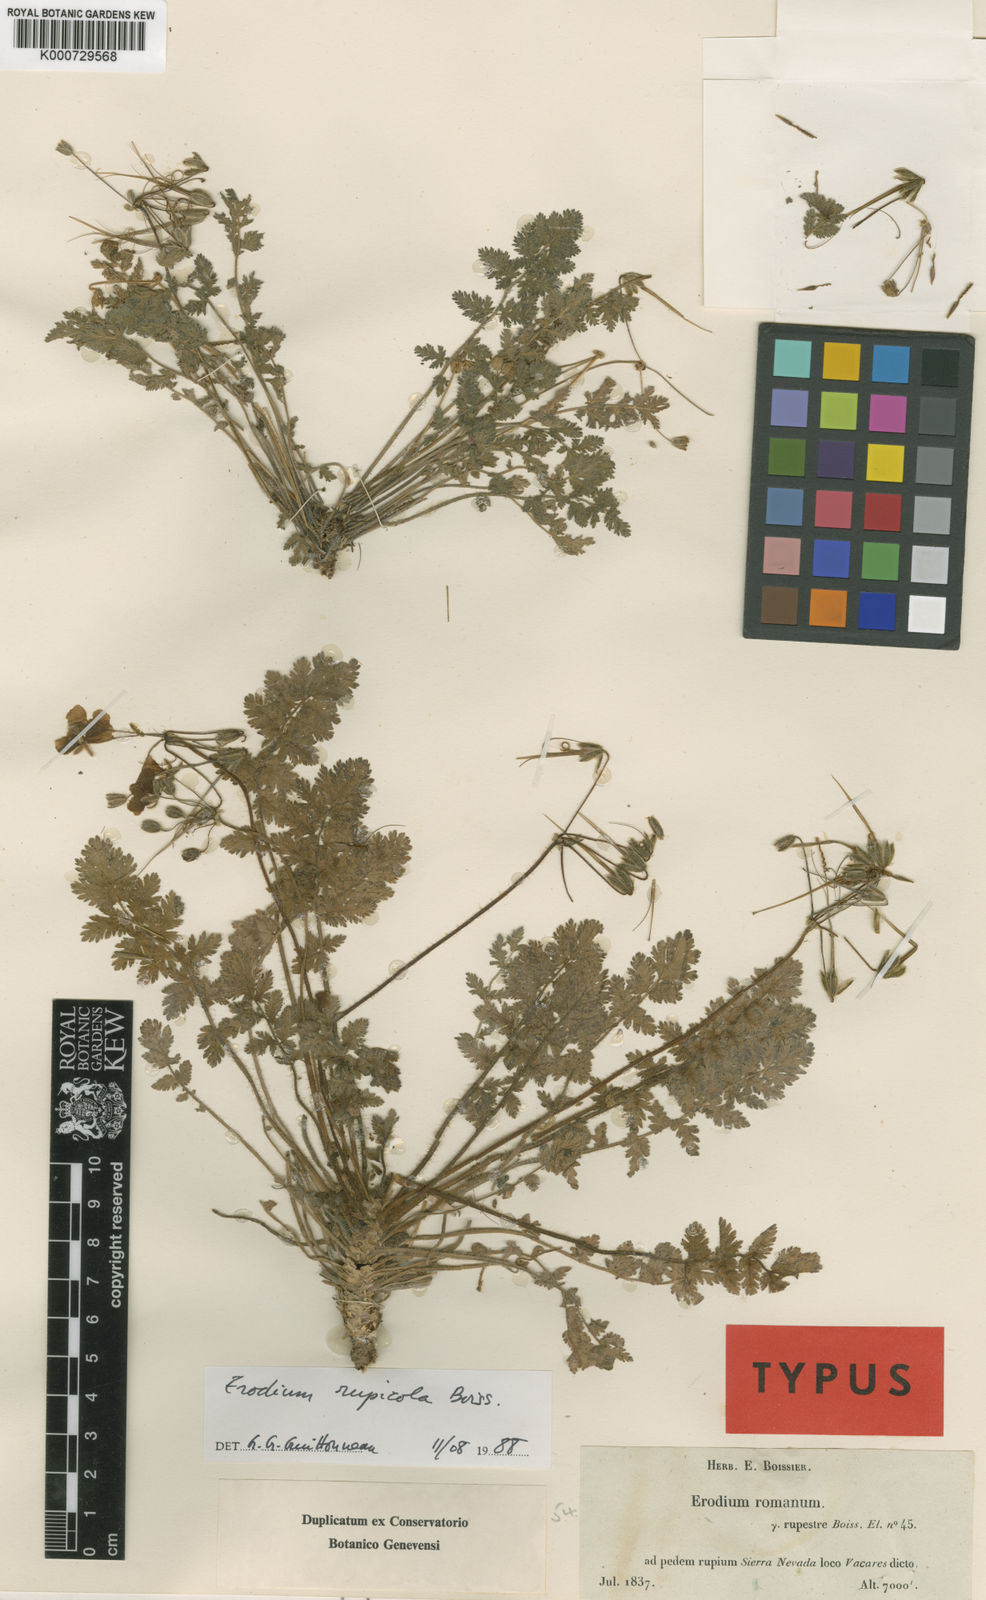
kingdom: Plantae
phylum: Tracheophyta
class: Magnoliopsida
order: Geraniales
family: Geraniaceae
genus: Erodium
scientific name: Erodium rupicola
